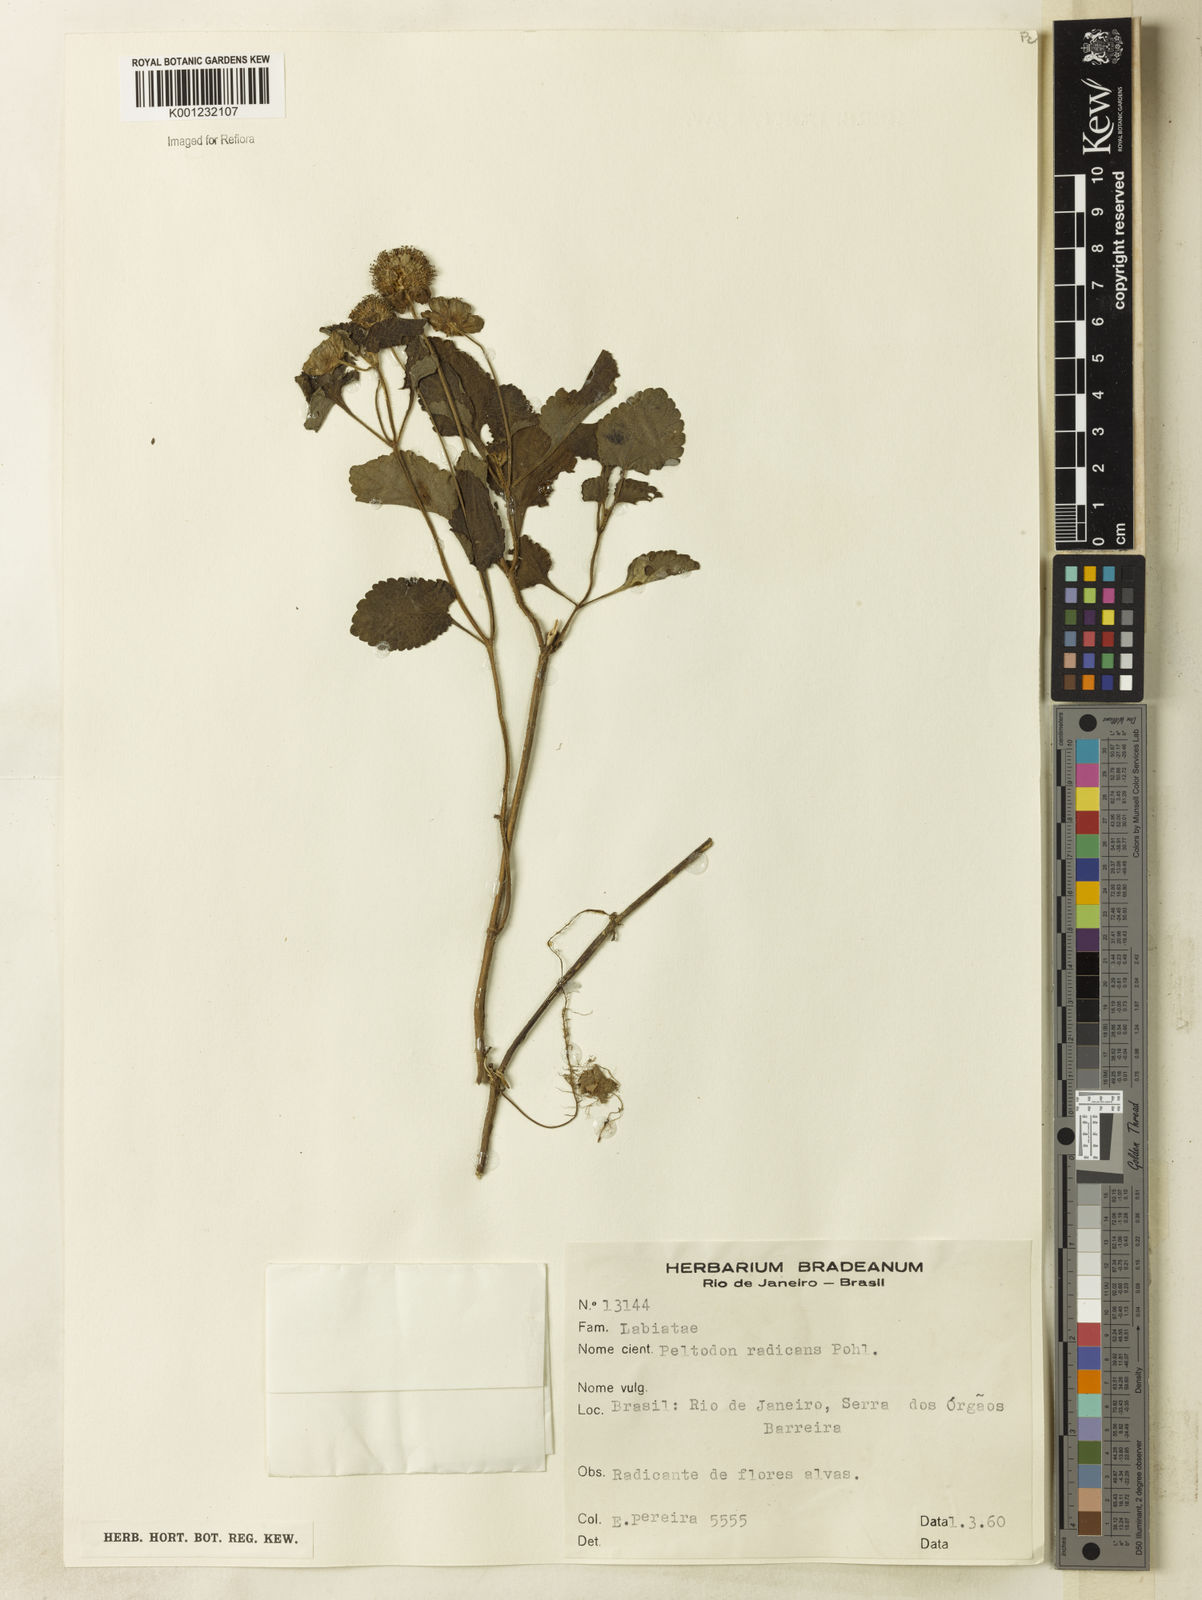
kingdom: Plantae
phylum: Tracheophyta
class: Magnoliopsida
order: Lamiales
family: Lamiaceae
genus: Hyptis
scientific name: Hyptis radicans
